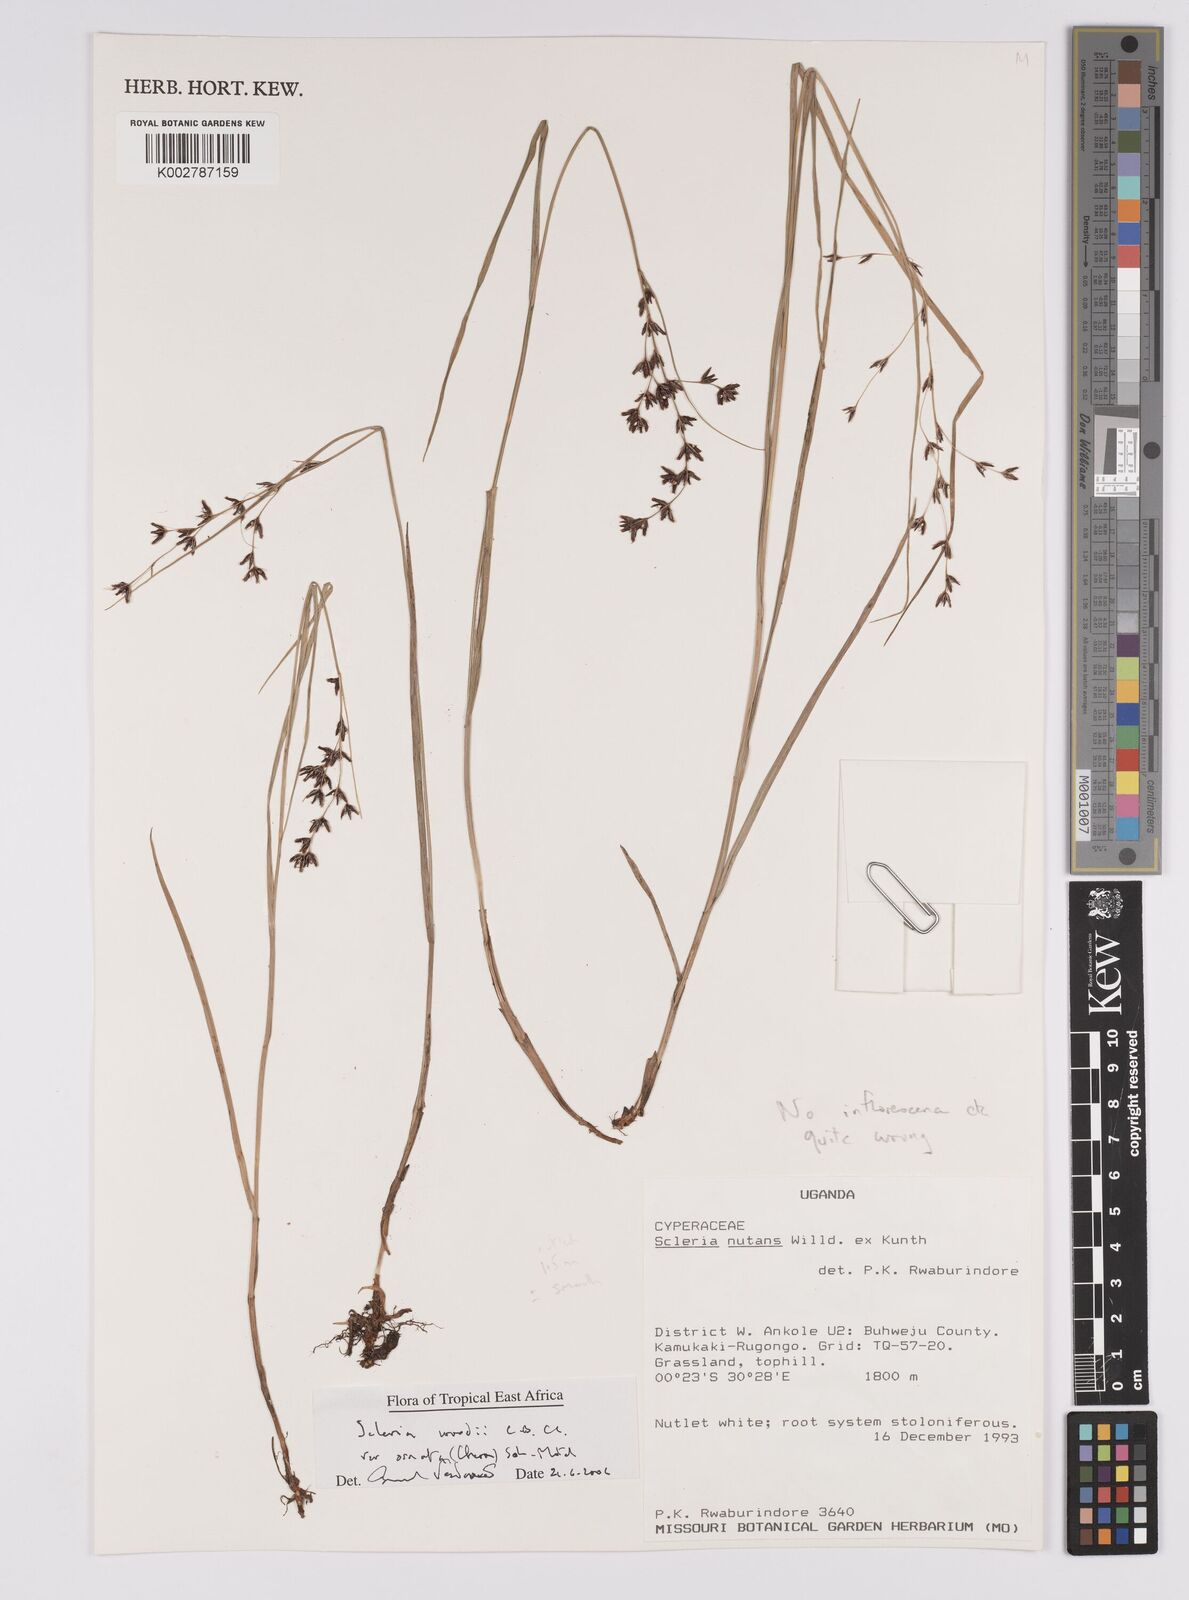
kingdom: Plantae
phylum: Tracheophyta
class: Liliopsida
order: Poales
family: Cyperaceae
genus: Scleria
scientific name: Scleria woodii
